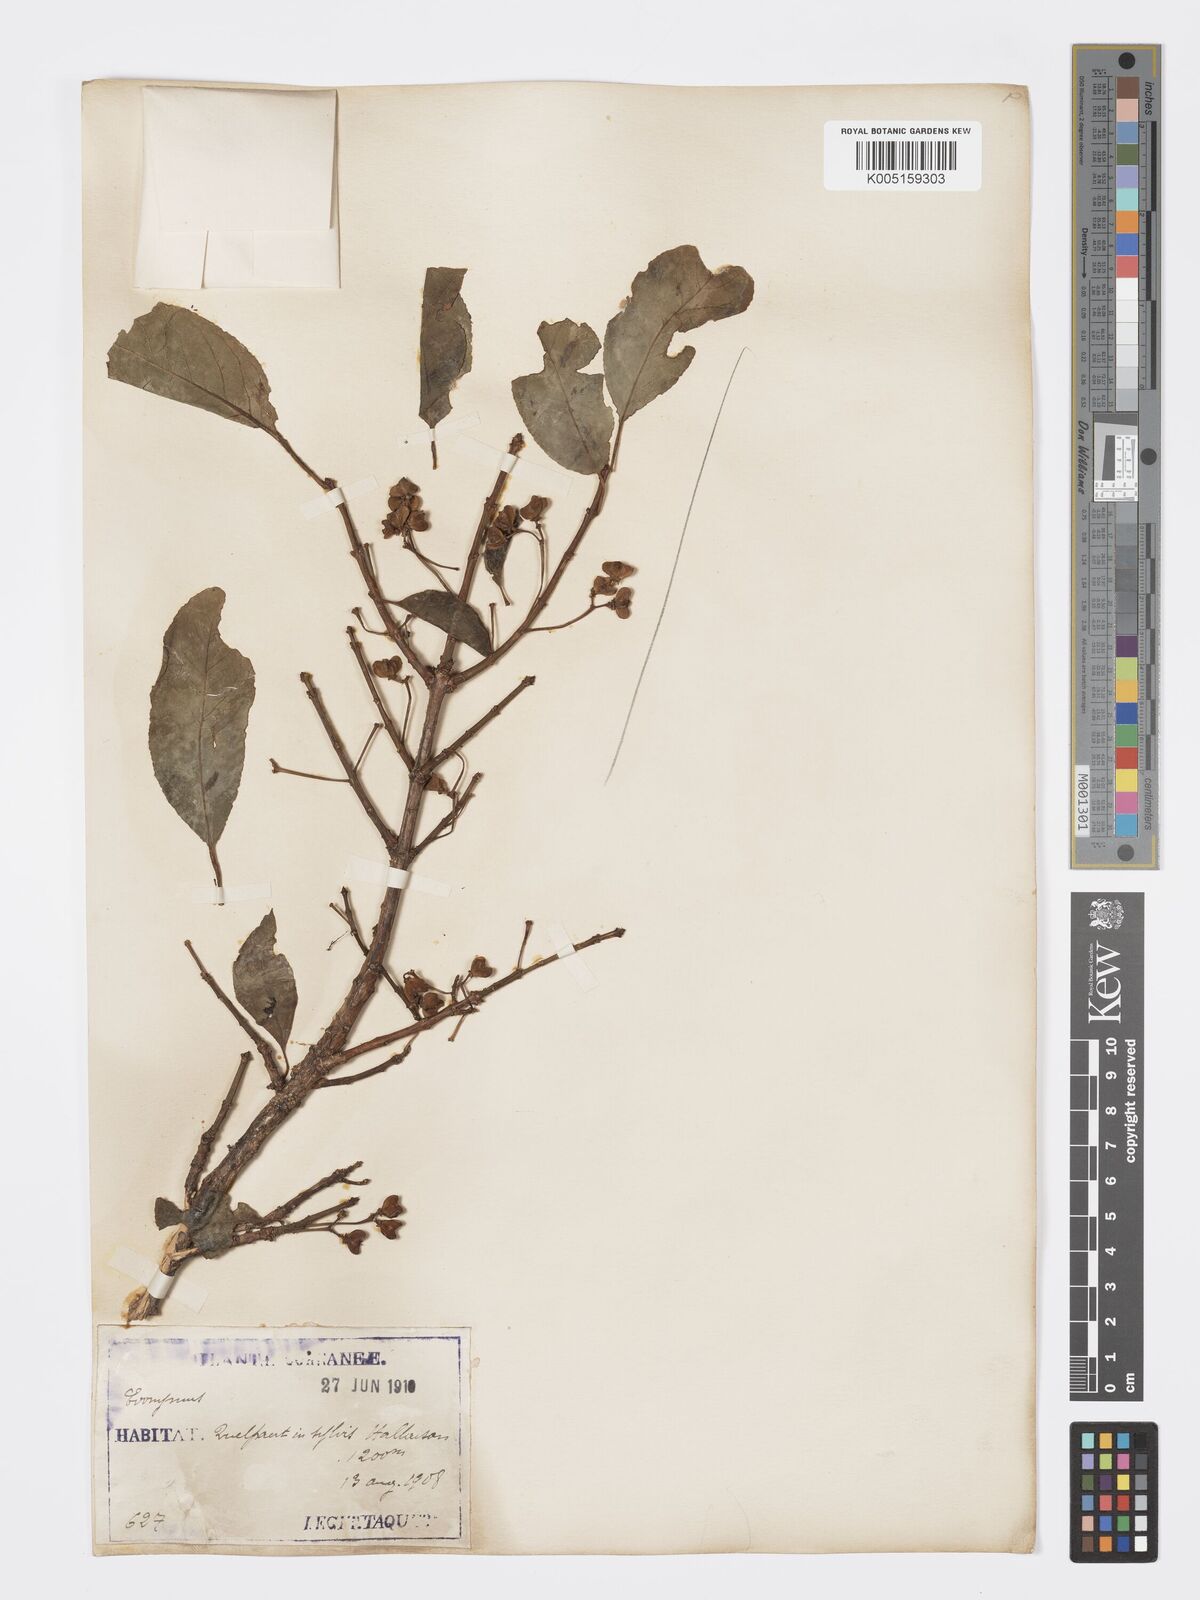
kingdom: Plantae
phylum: Tracheophyta
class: Magnoliopsida
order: Celastrales
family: Celastraceae
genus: Euonymus
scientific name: Euonymus maackii
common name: Hamilton's spindletree
